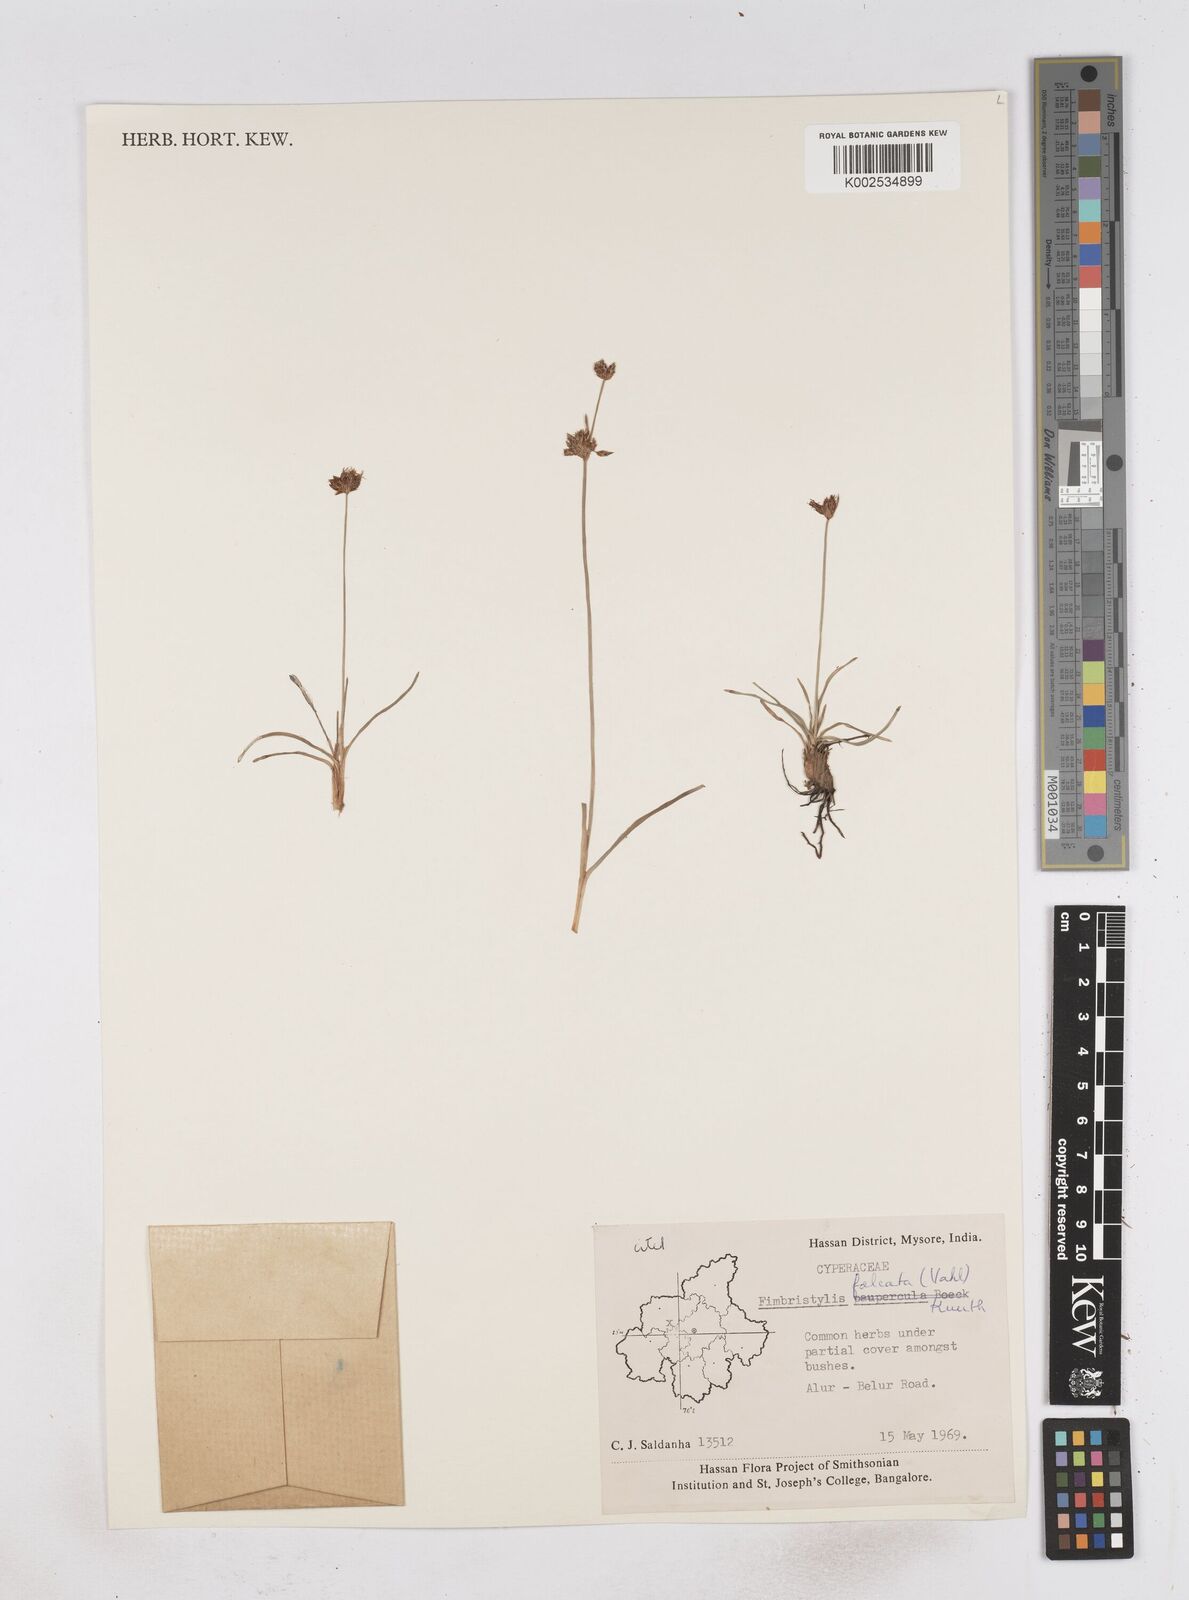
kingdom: Plantae
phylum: Tracheophyta
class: Liliopsida
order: Poales
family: Cyperaceae
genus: Fimbristylis
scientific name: Fimbristylis falcata
